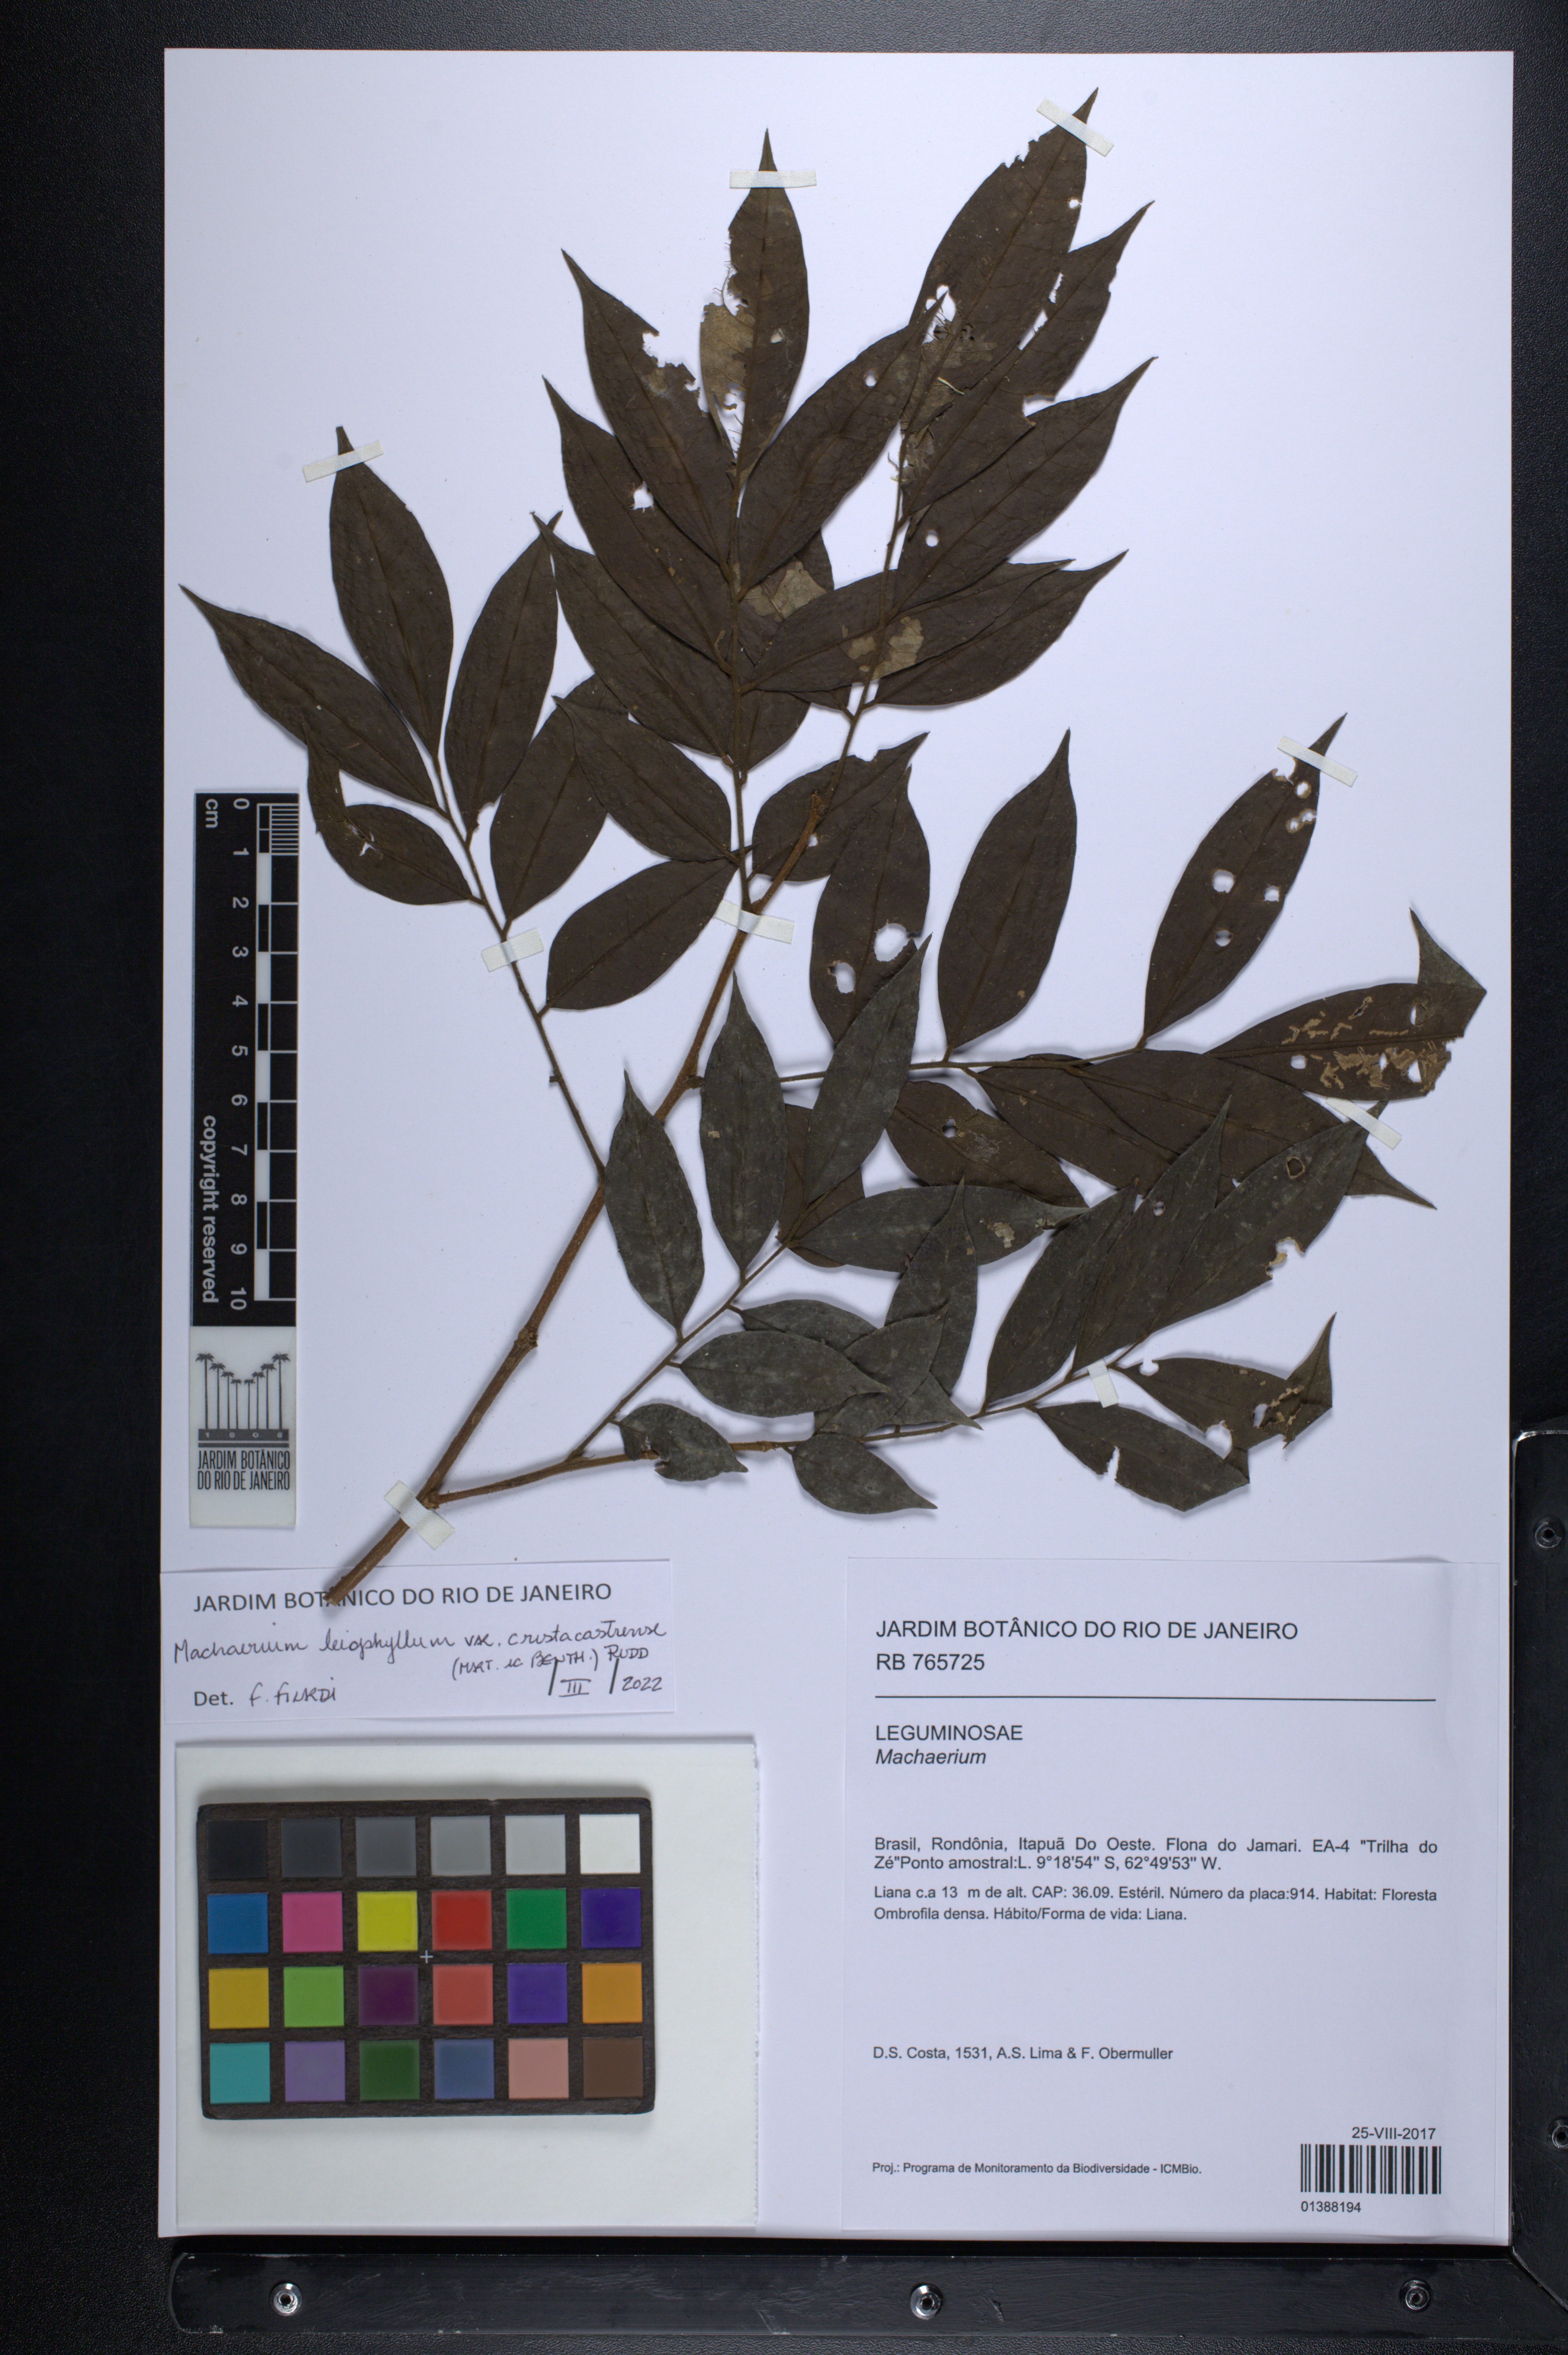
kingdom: Plantae
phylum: Tracheophyta
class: Magnoliopsida
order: Fabales
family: Fabaceae
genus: Machaerium
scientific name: Machaerium leiophyllum
